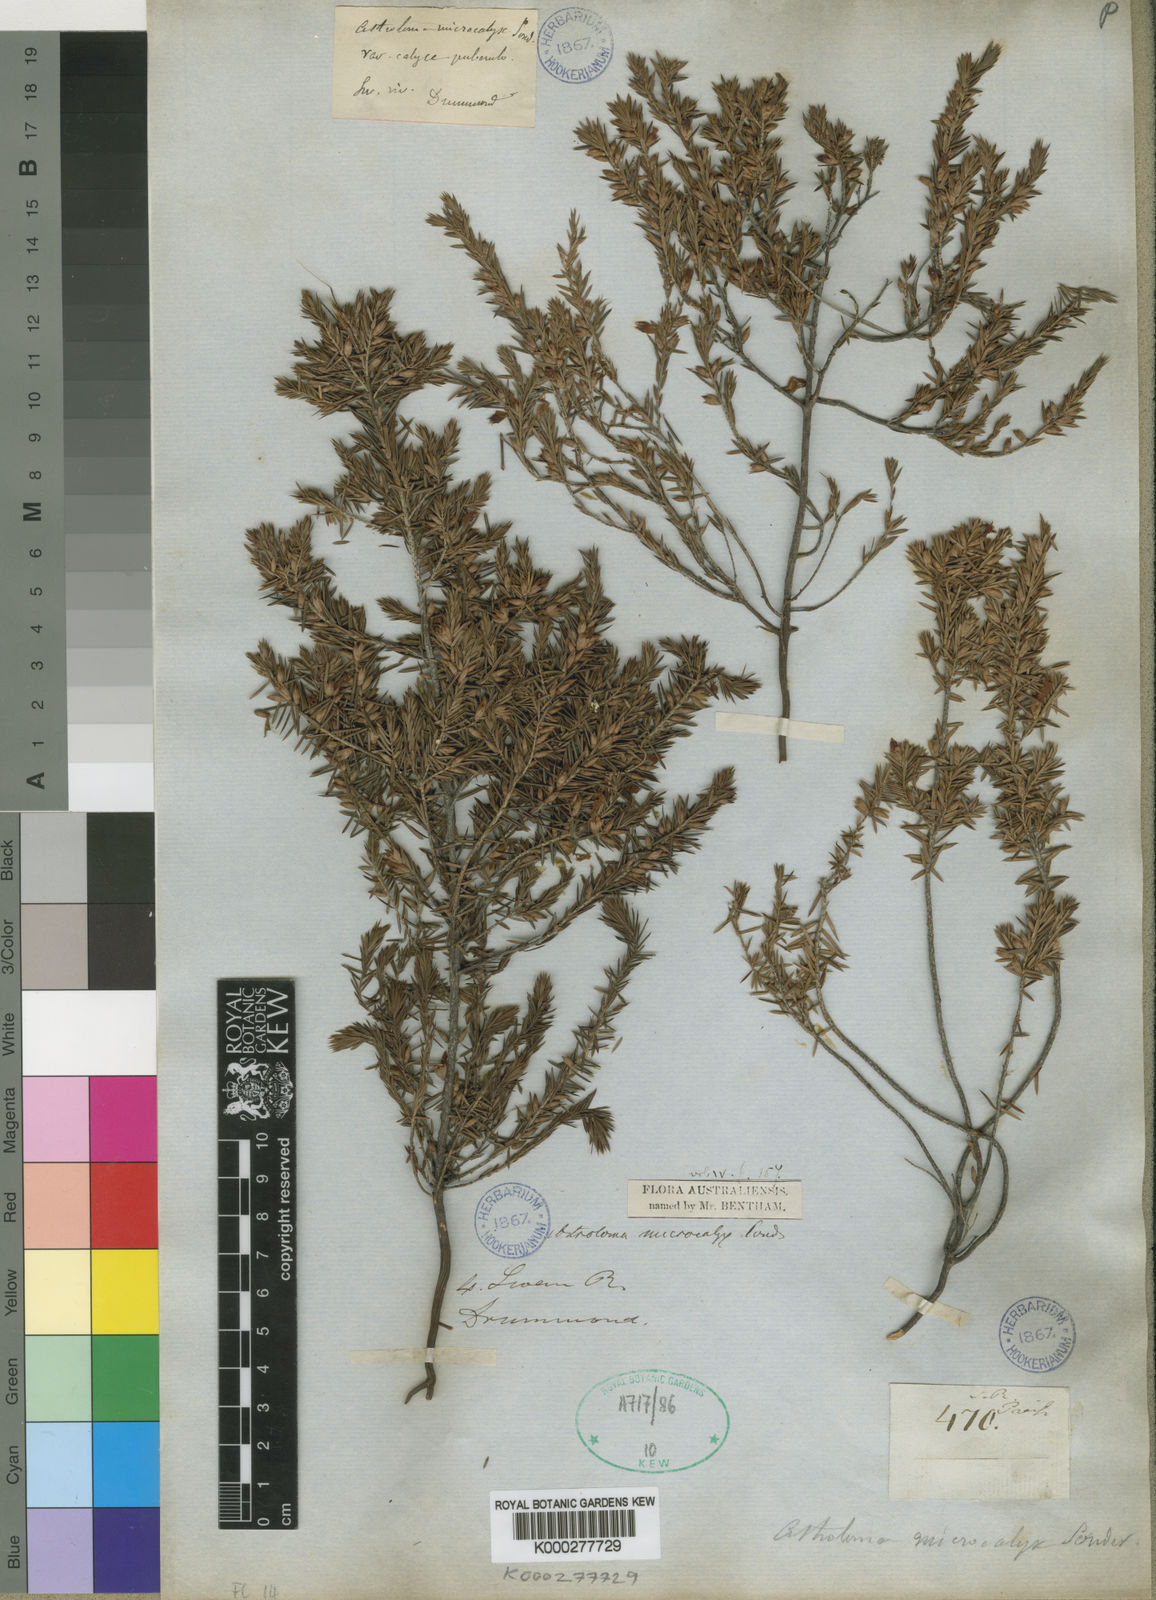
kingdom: Plantae
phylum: Tracheophyta
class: Magnoliopsida
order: Ericales
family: Ericaceae
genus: Styphelia
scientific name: Styphelia microcalyx
